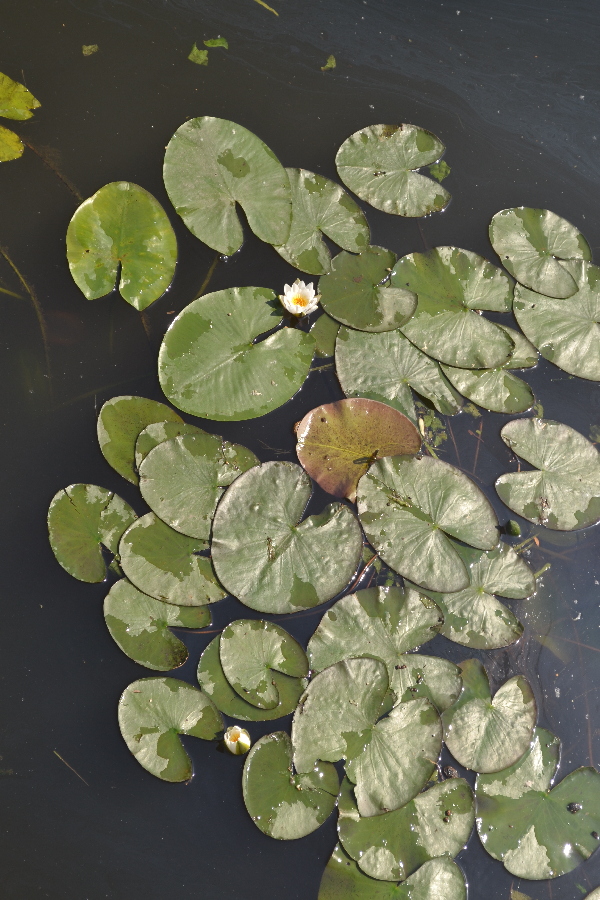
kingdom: Plantae
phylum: Tracheophyta
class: Magnoliopsida
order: Nymphaeales
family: Nymphaeaceae
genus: Nymphaea
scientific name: Nymphaea candida
